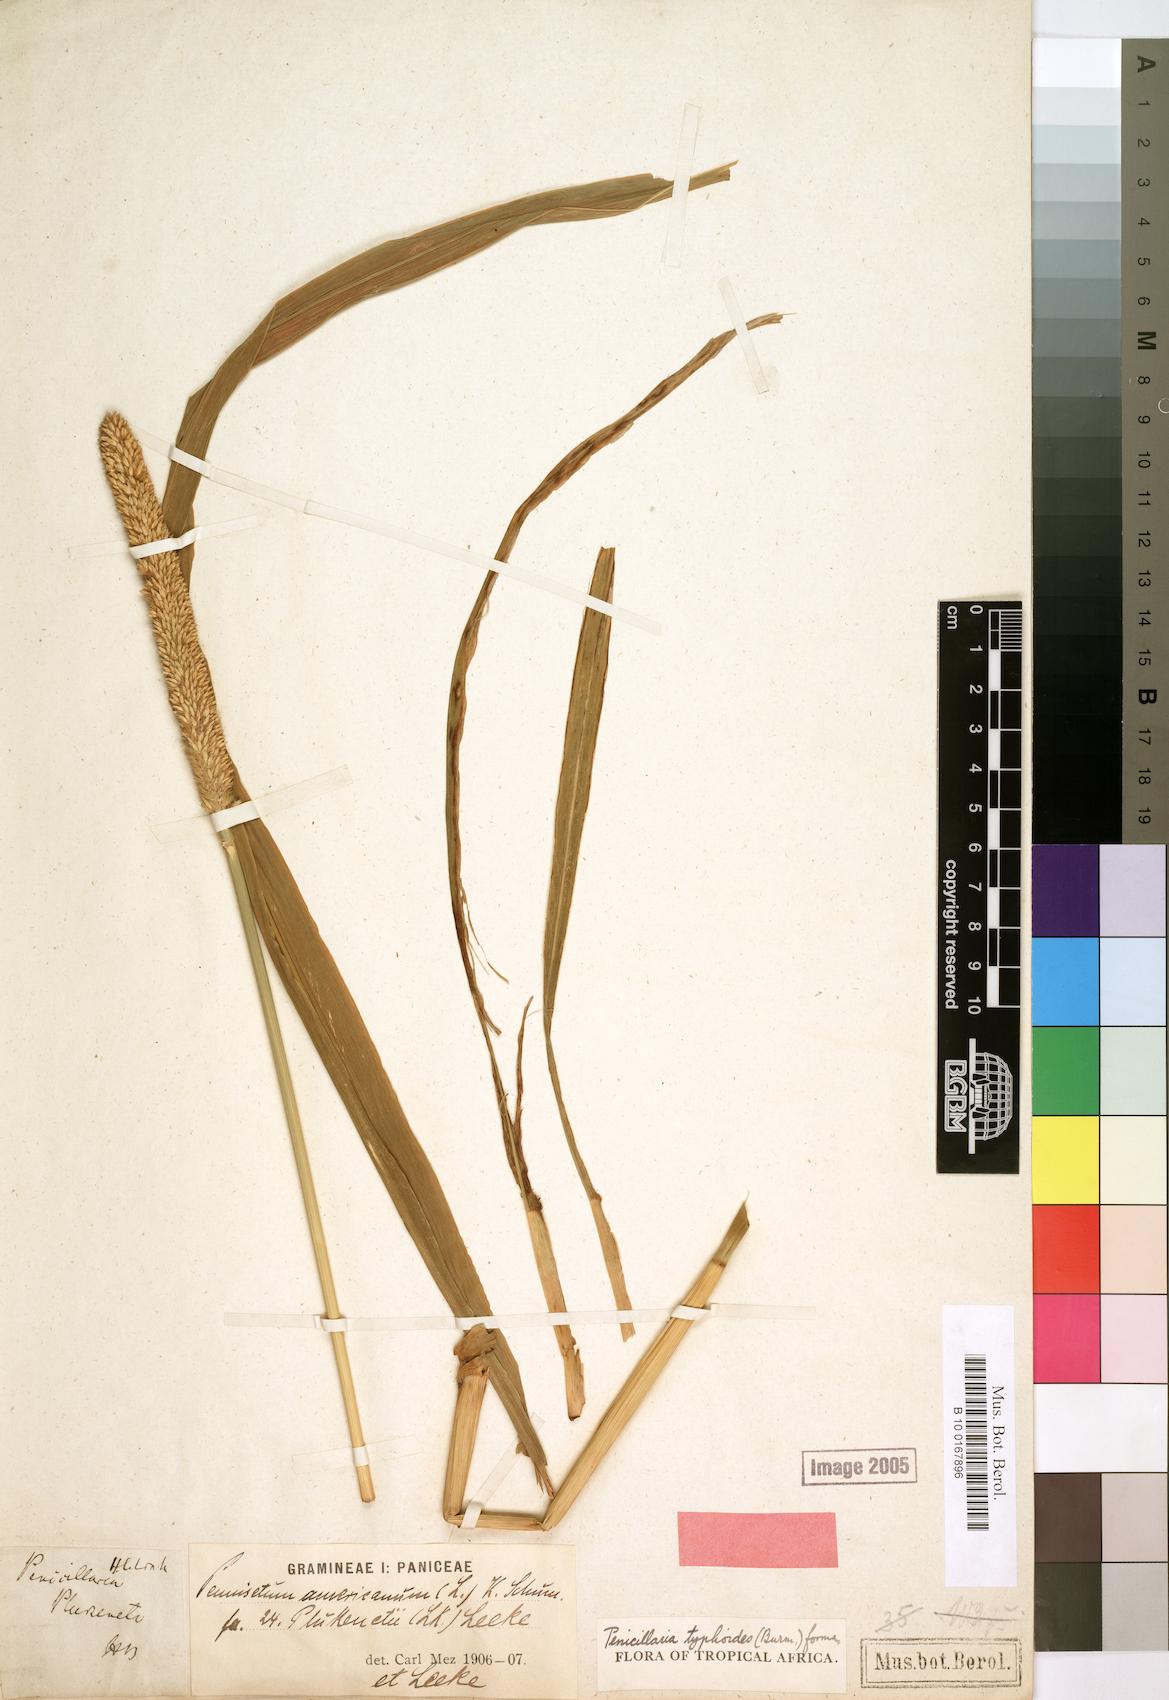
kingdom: Plantae
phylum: Tracheophyta
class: Liliopsida
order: Poales
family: Poaceae
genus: Cenchrus
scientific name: Cenchrus americanus
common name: Pearl millet
